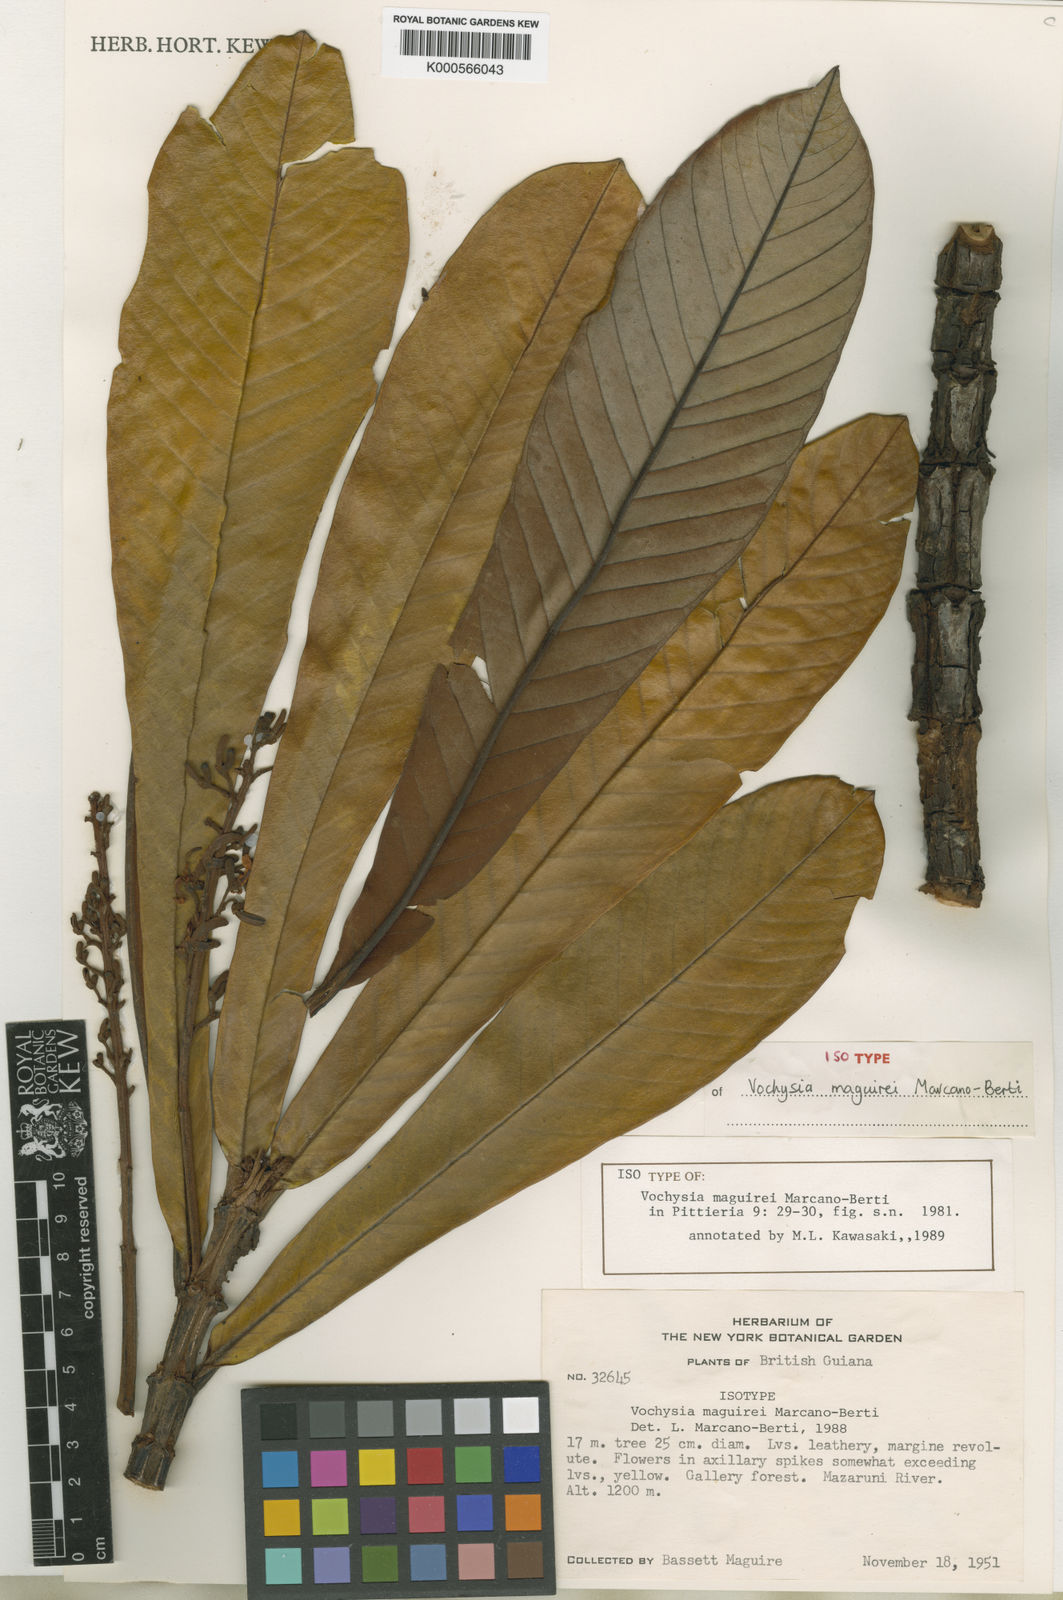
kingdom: Plantae
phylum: Tracheophyta
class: Magnoliopsida
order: Myrtales
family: Vochysiaceae
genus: Vochysia
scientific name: Vochysia maguirei
